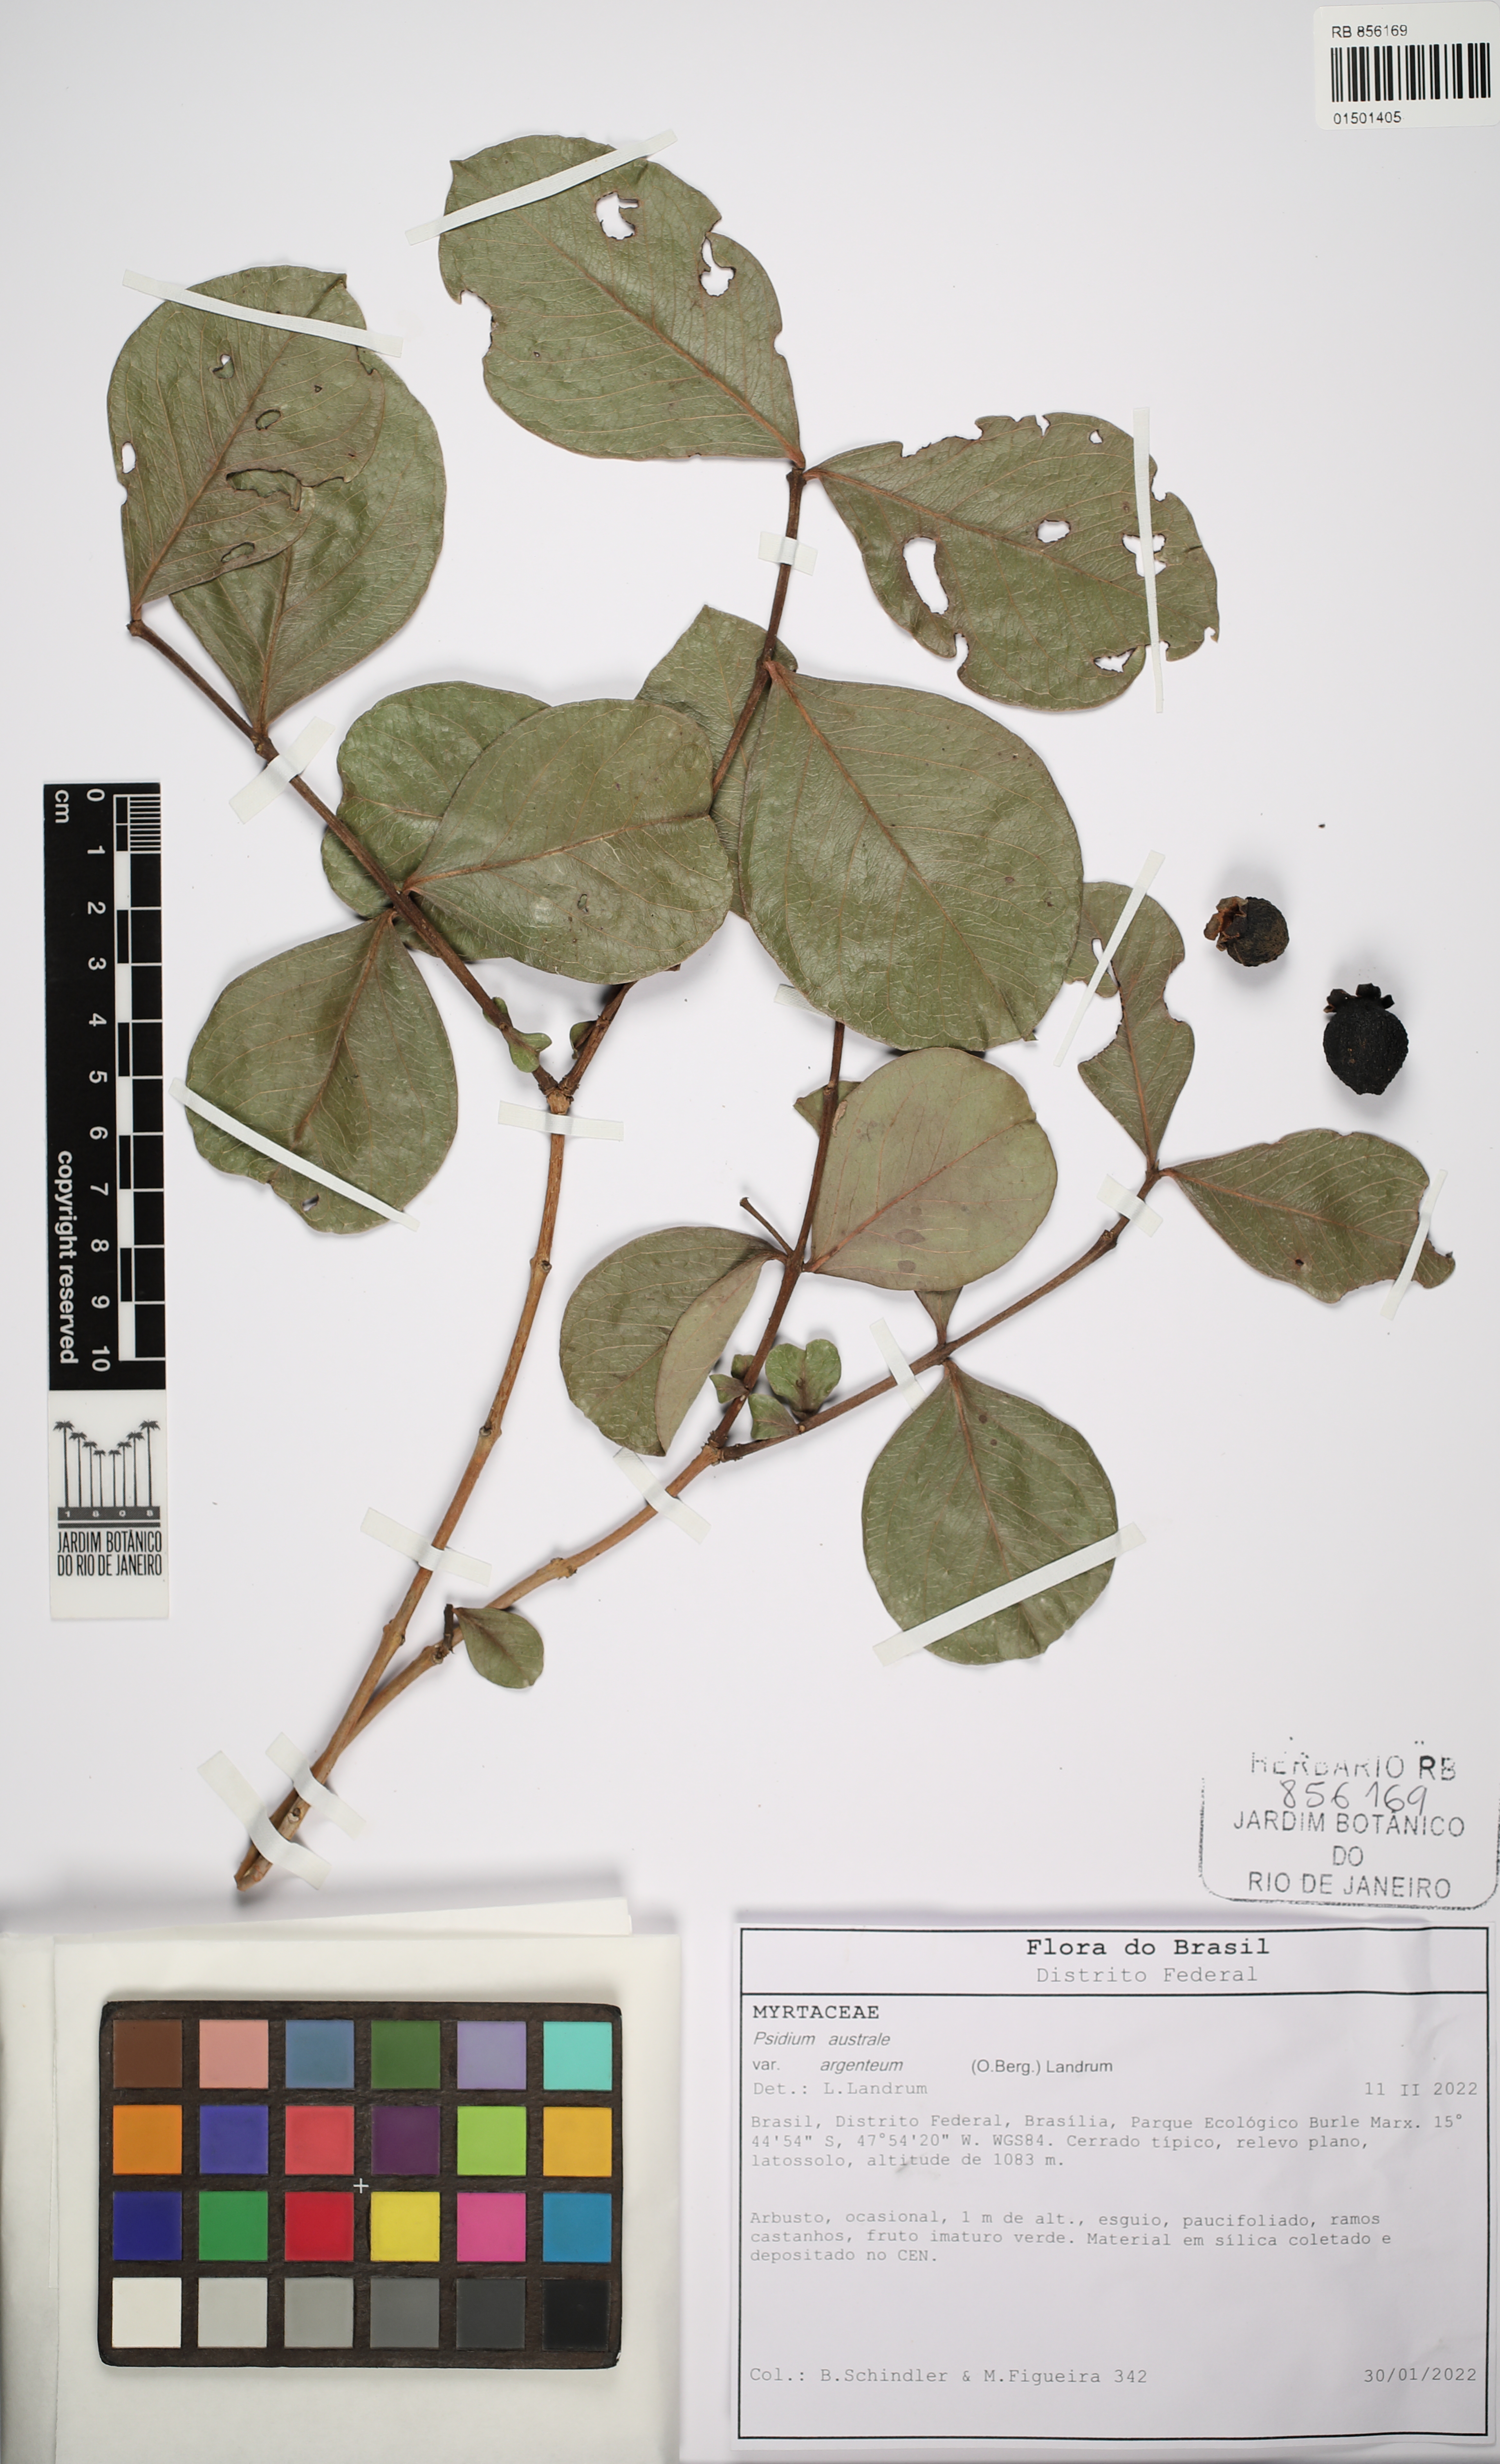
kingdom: Plantae
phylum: Tracheophyta
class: Magnoliopsida
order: Myrtales
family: Myrtaceae
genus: Psidium
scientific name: Psidium australe
